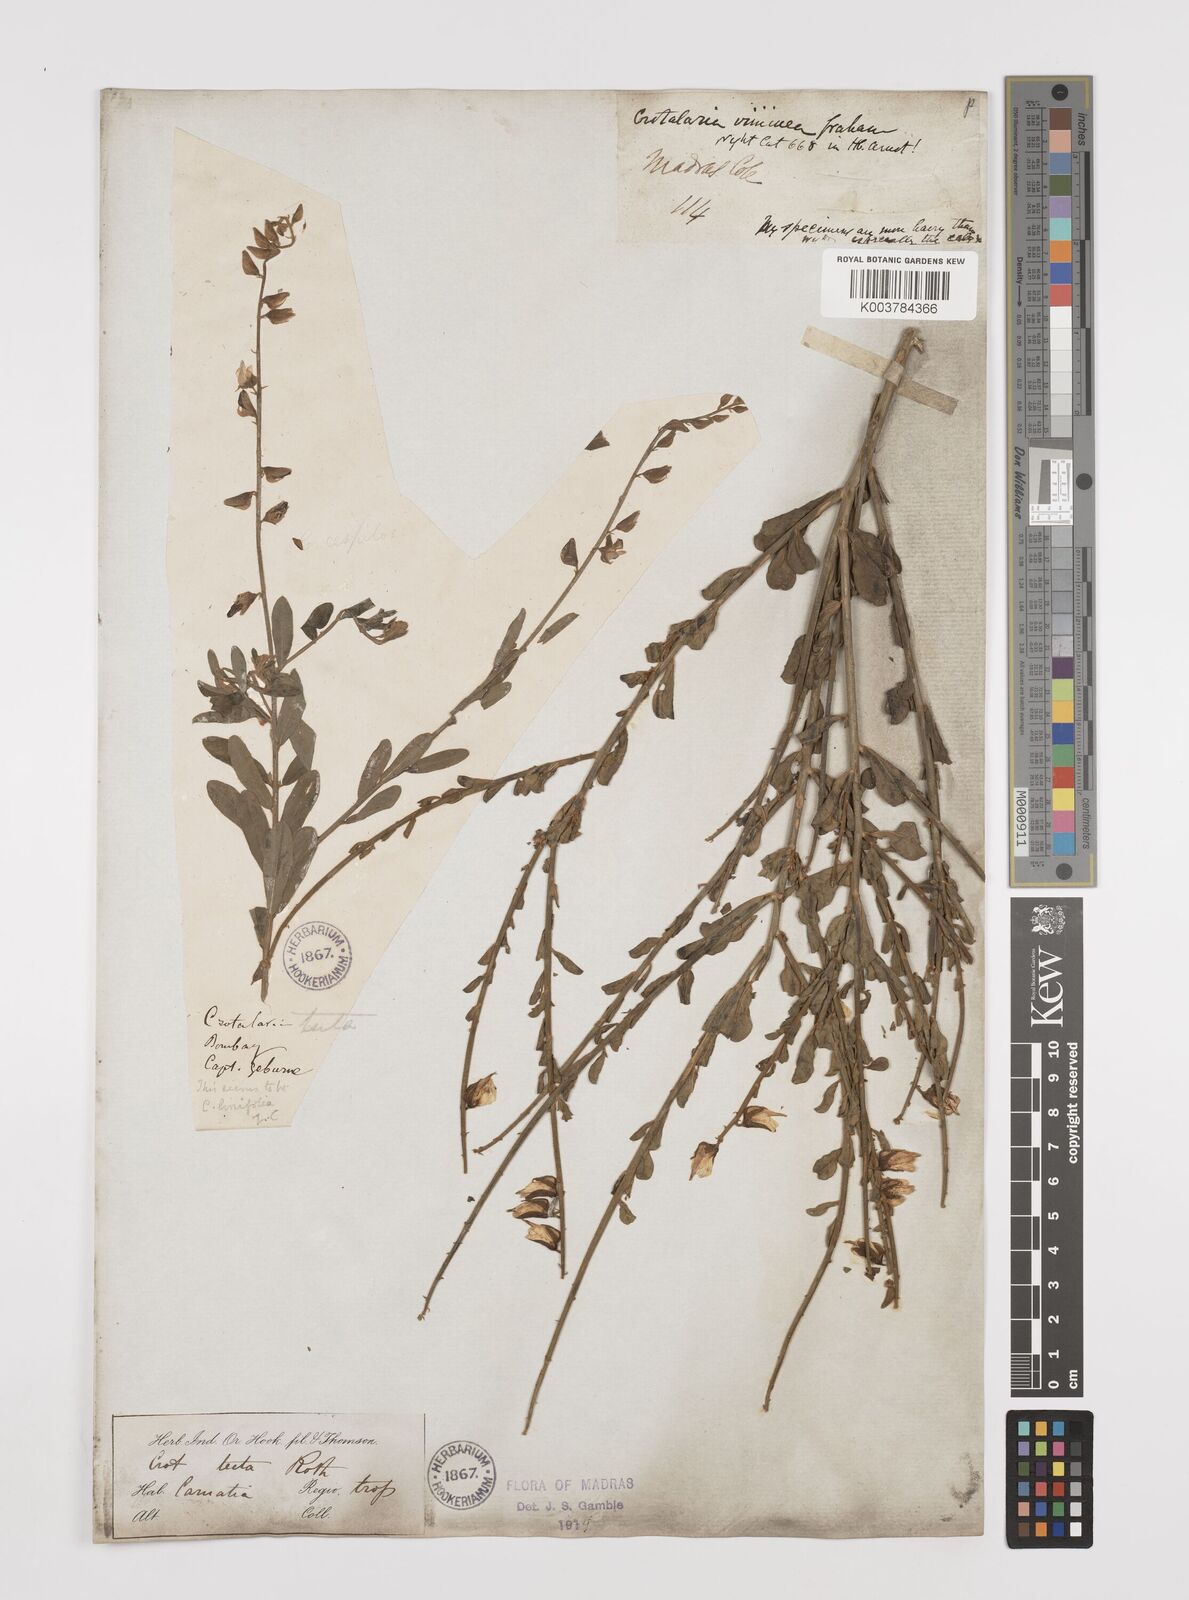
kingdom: Plantae
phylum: Tracheophyta
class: Magnoliopsida
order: Fabales
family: Fabaceae
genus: Crotalaria
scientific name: Crotalaria linifolia
